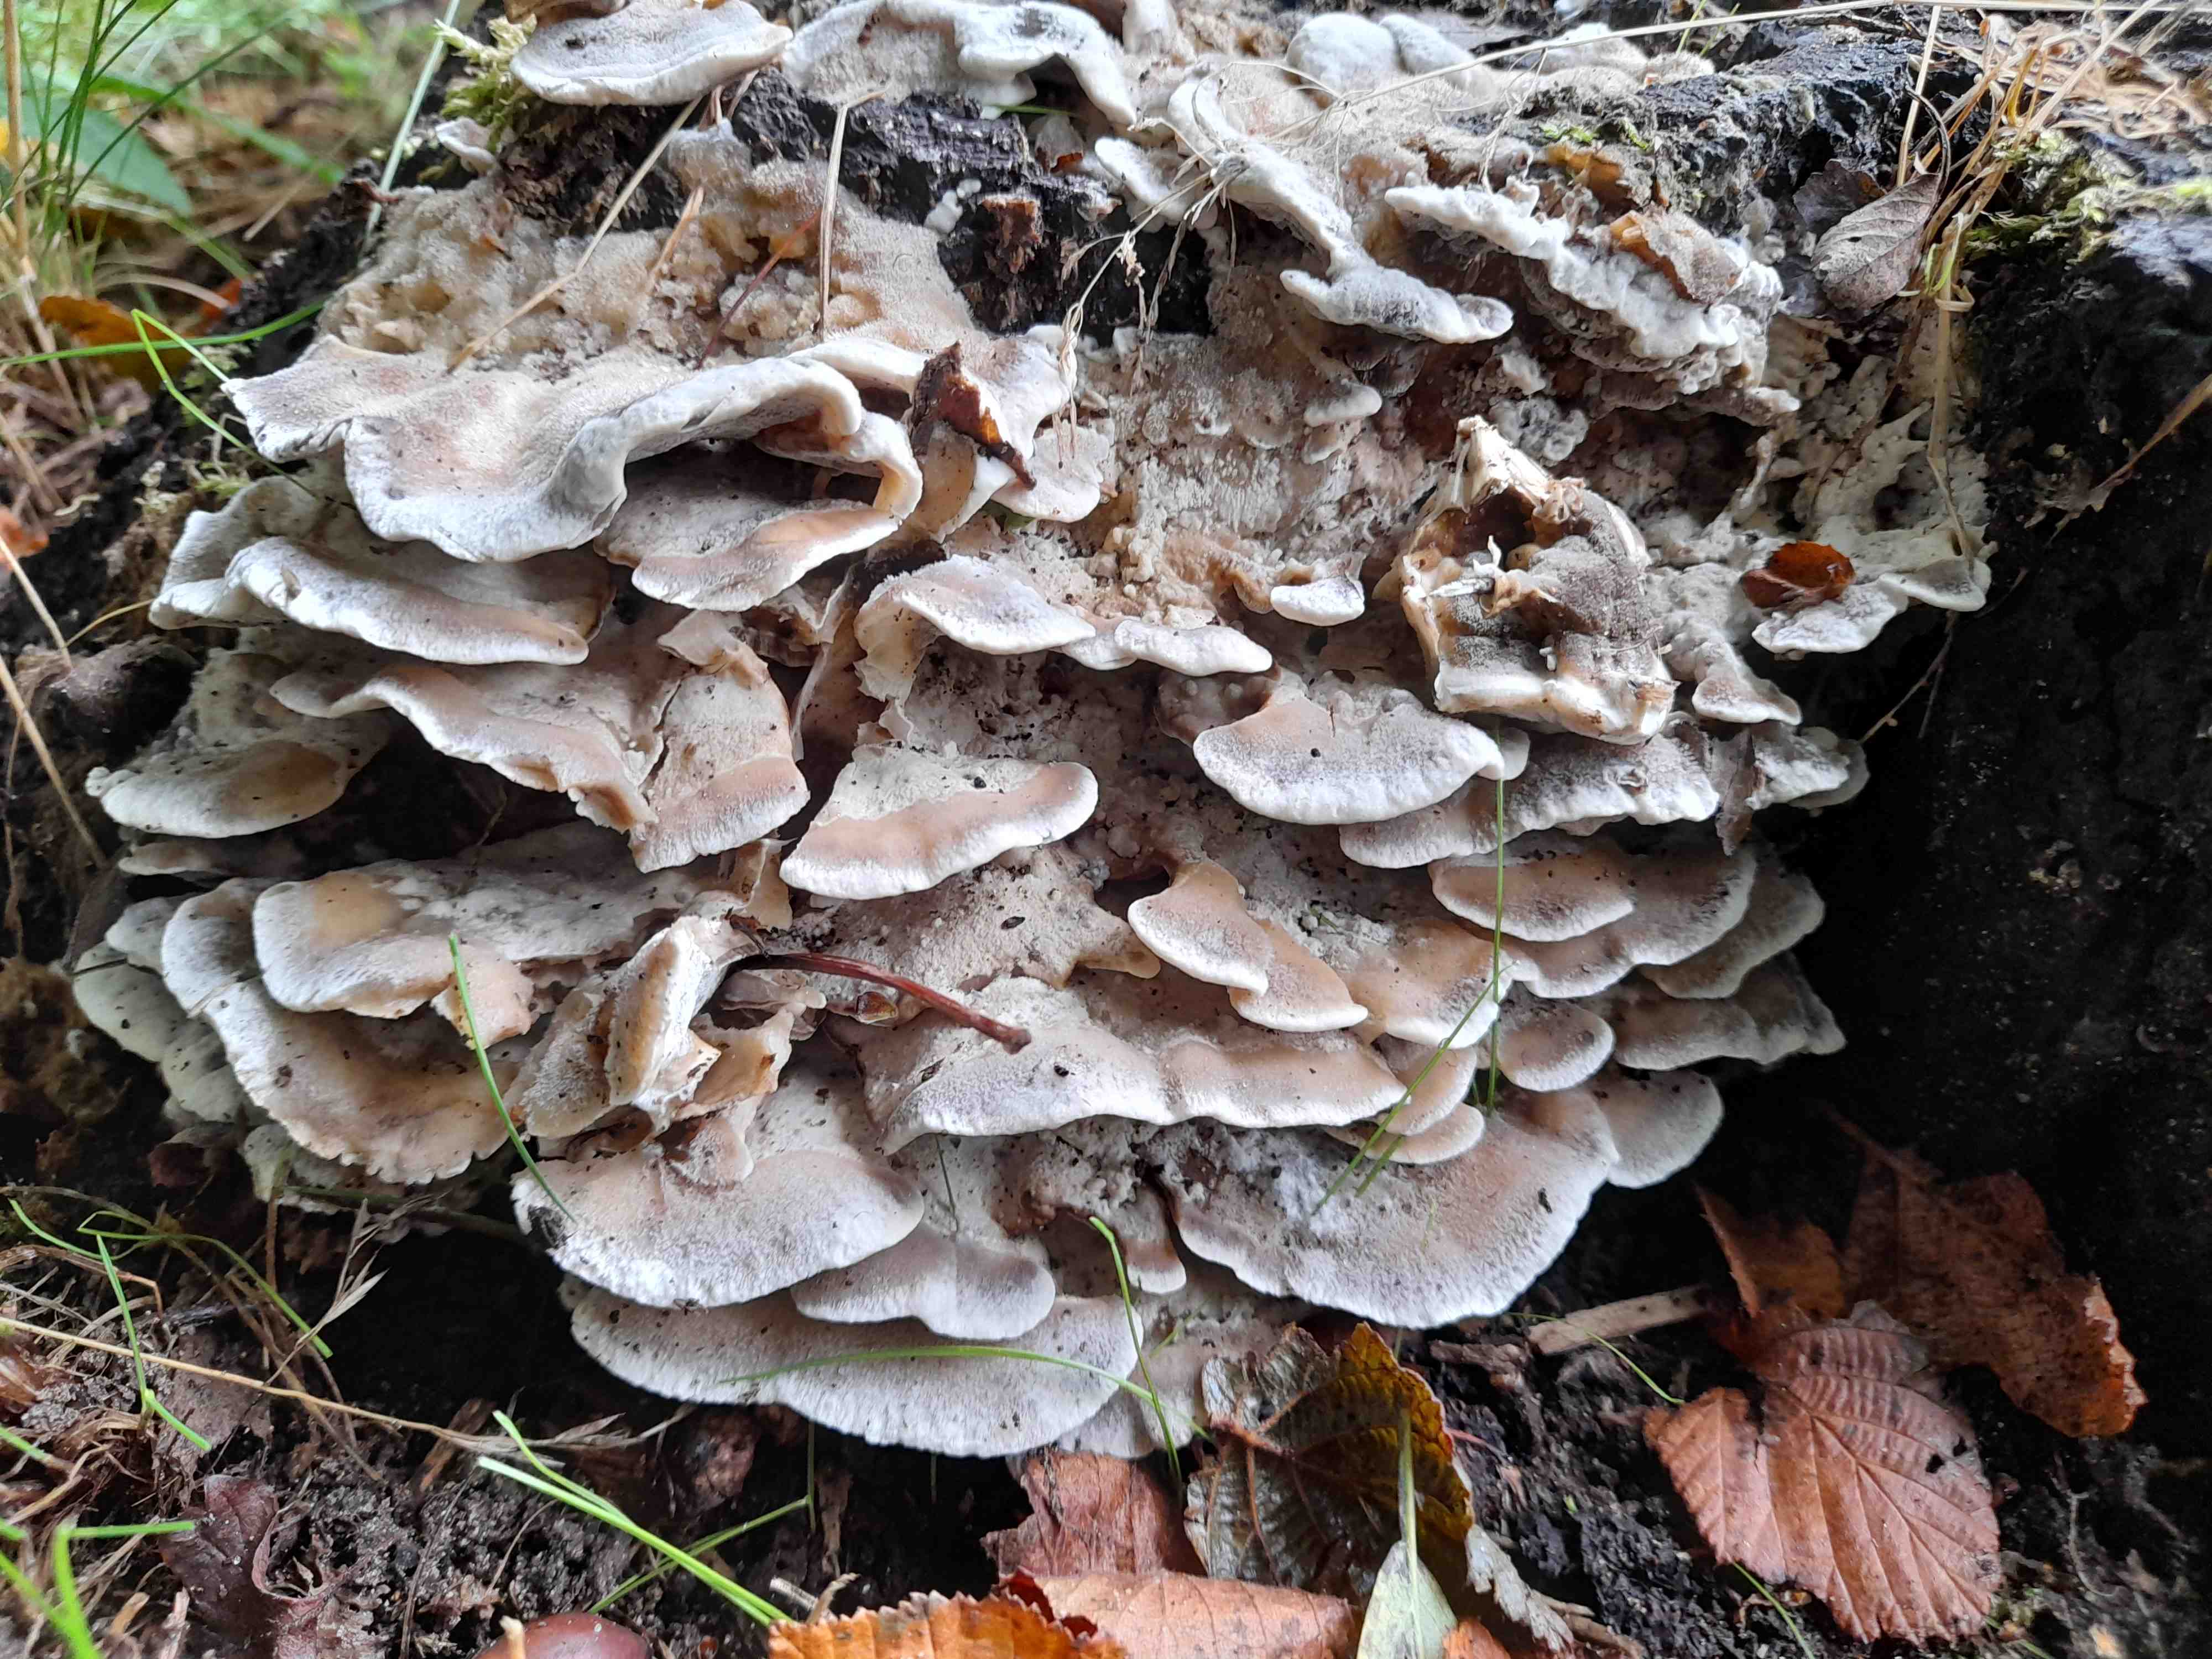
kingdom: Fungi
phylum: Basidiomycota
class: Agaricomycetes
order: Polyporales
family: Phanerochaetaceae
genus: Bjerkandera
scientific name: Bjerkandera adusta
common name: sveden sodporesvamp
